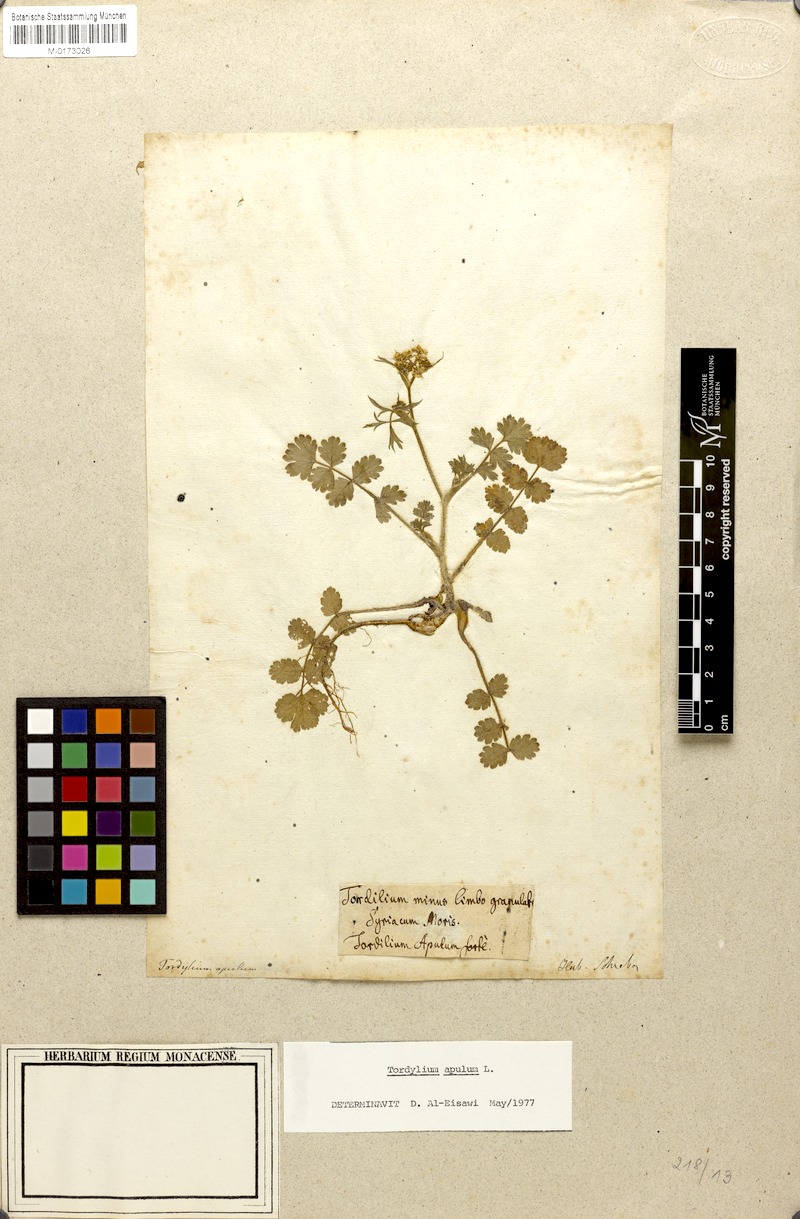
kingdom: Plantae
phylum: Tracheophyta
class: Magnoliopsida
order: Apiales
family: Apiaceae
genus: Tordylium
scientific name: Tordylium apulum
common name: Mediterranean hartwort
